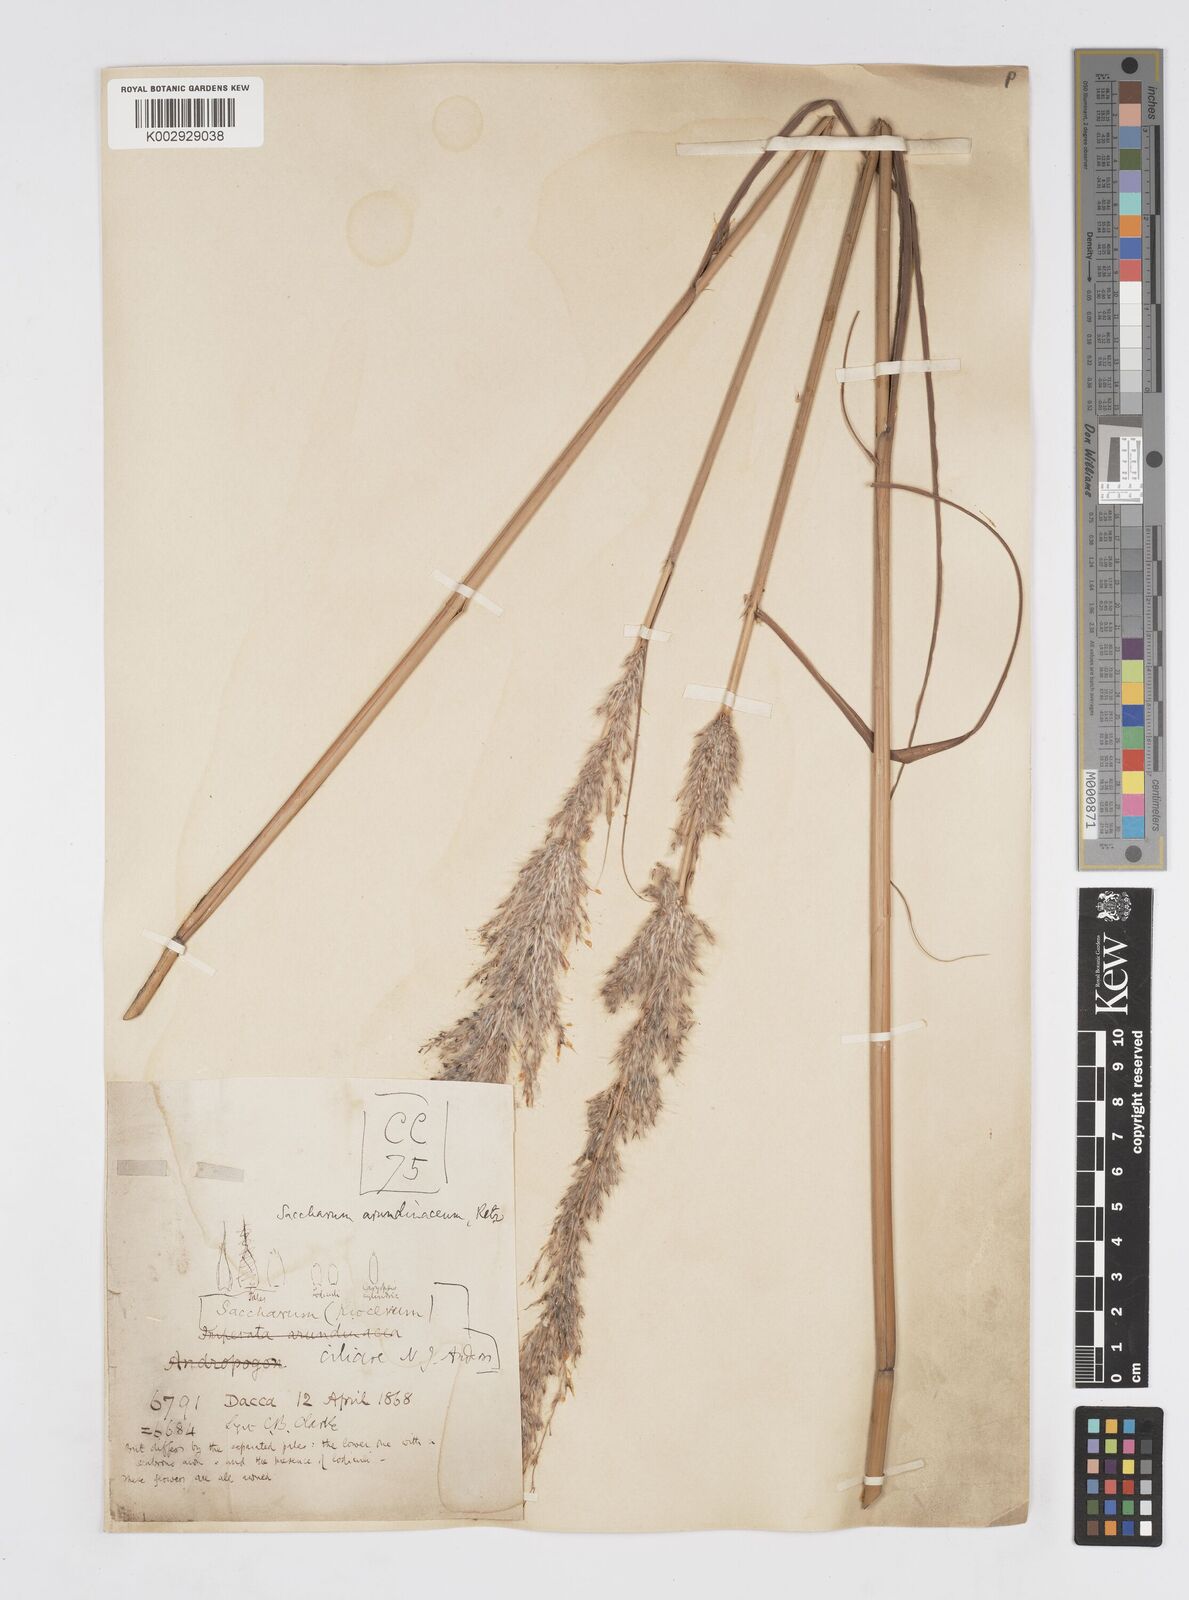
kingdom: Plantae
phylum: Tracheophyta
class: Liliopsida
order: Poales
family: Poaceae
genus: Tripidium
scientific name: Tripidium arundinaceum
